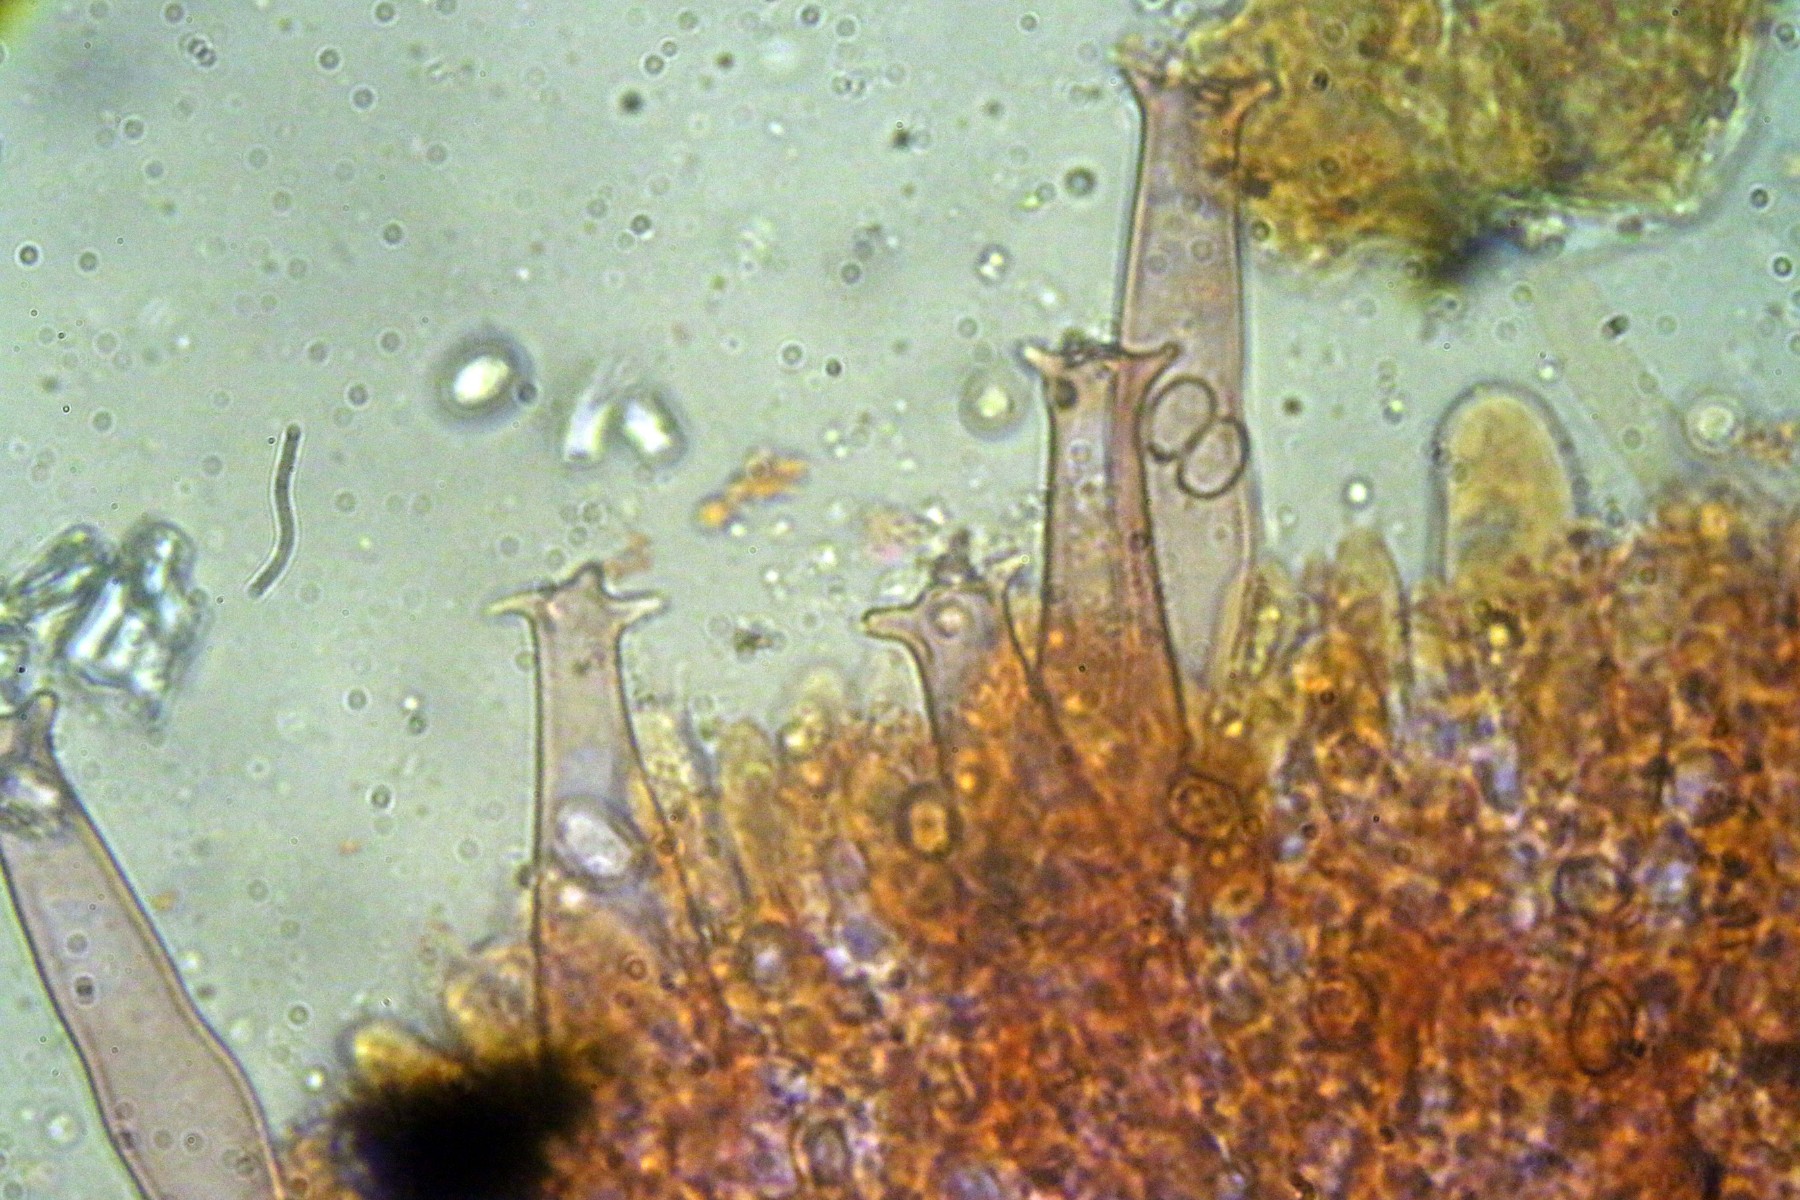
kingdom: Fungi
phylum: Basidiomycota
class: Agaricomycetes
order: Agaricales
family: Pluteaceae
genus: Pluteus
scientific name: Pluteus salicinus
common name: stiv skærmhat
